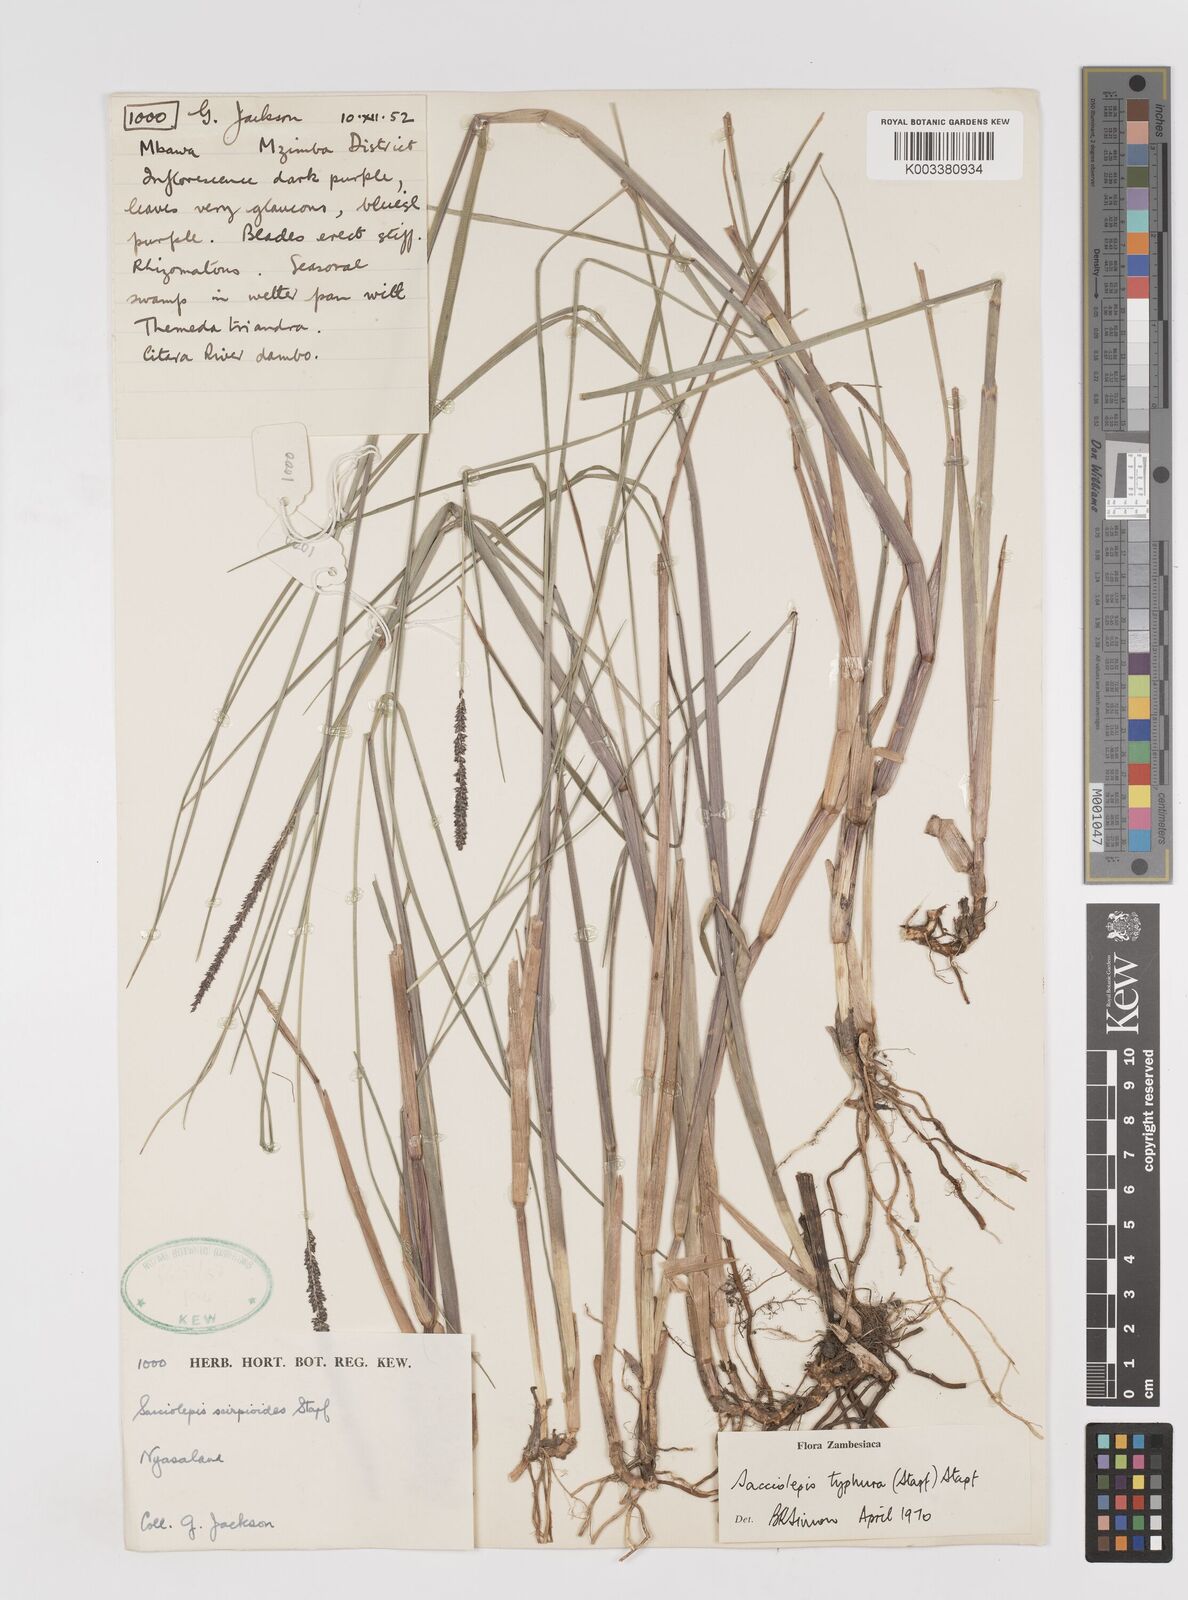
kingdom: Plantae
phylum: Tracheophyta
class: Liliopsida
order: Poales
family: Poaceae
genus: Sacciolepis
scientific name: Sacciolepis typhura
